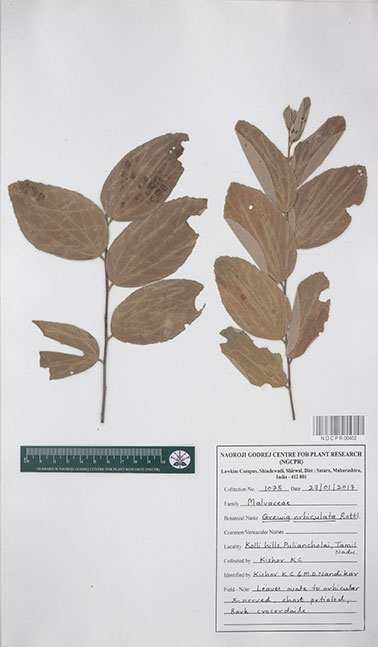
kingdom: Plantae
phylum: Tracheophyta
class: Magnoliopsida
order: Malvales
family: Malvaceae
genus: Grewia
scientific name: Grewia orbiculata
